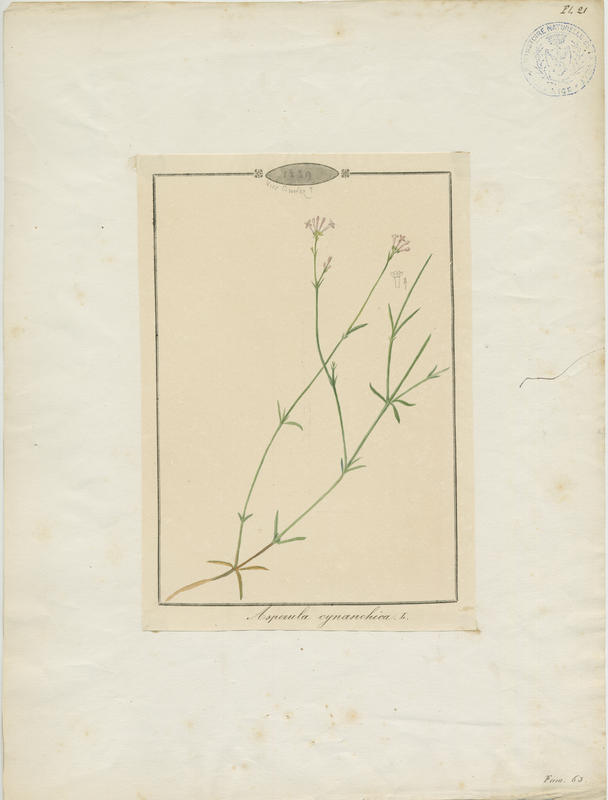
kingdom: Plantae
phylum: Tracheophyta
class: Magnoliopsida
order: Gentianales
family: Rubiaceae
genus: Cynanchica
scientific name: Cynanchica pyrenaica
